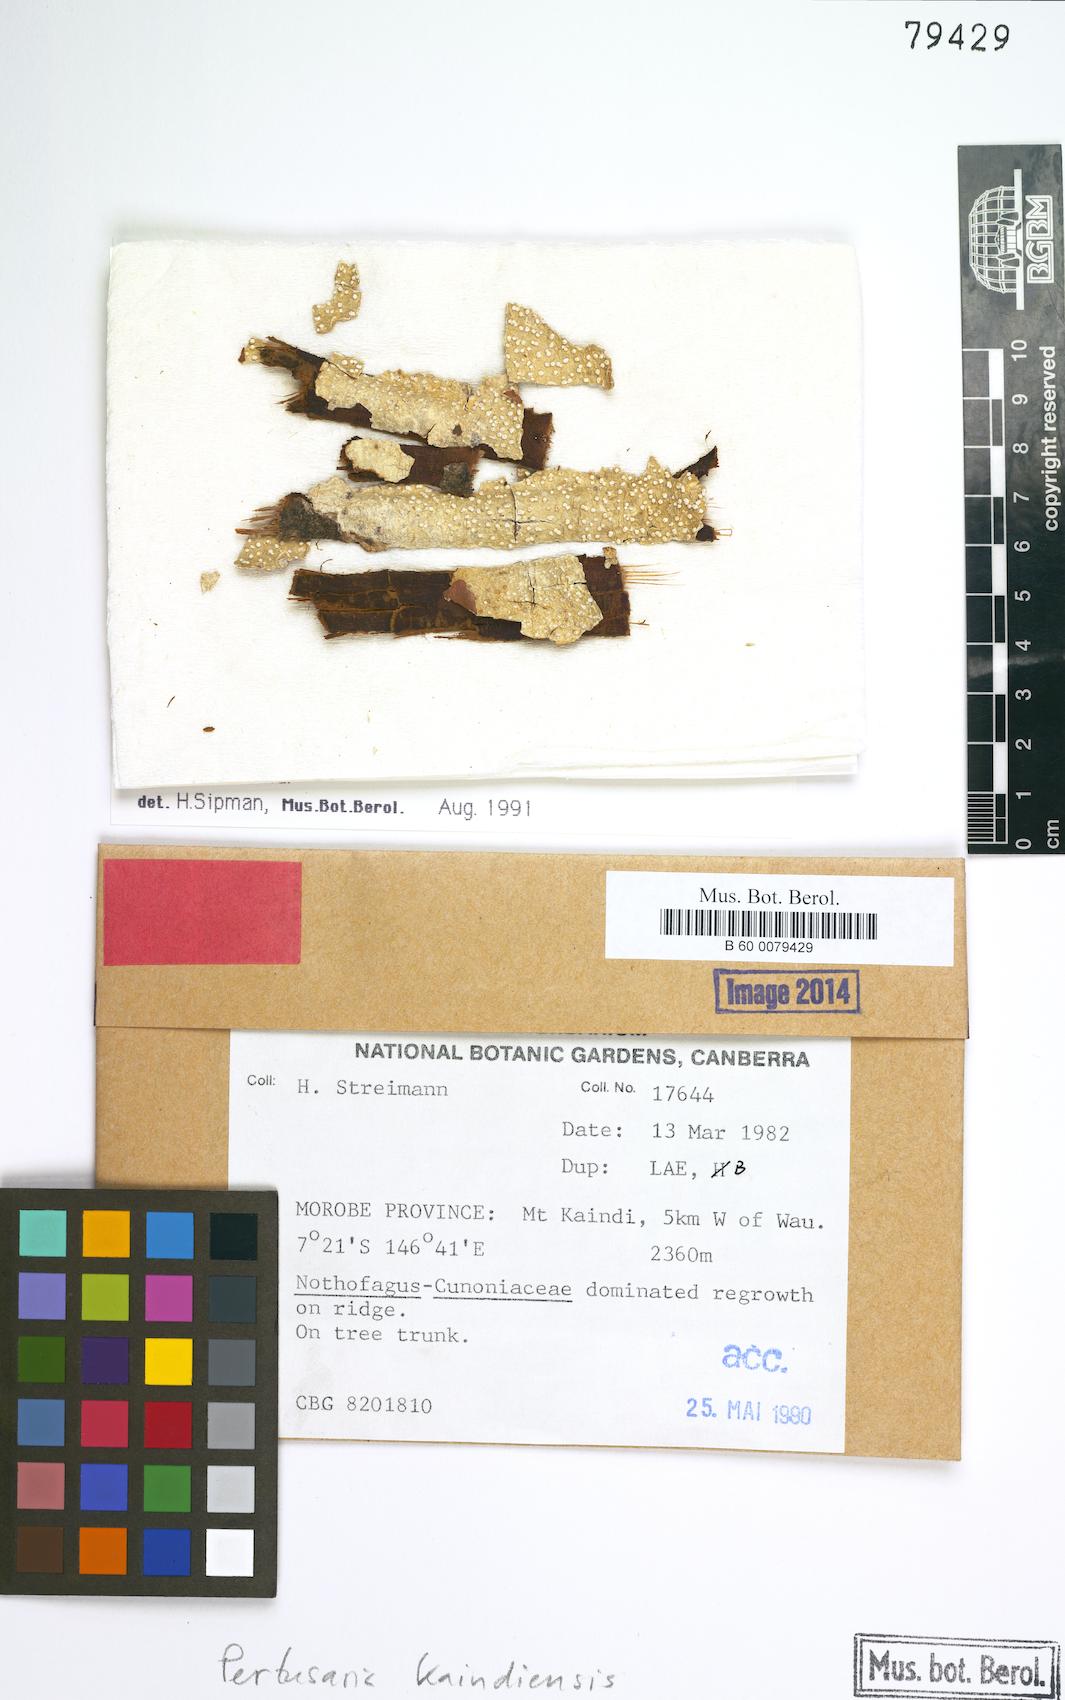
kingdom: Fungi
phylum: Ascomycota
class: Lecanoromycetes
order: Pertusariales
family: Pertusariaceae
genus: Pertusaria
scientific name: Pertusaria
